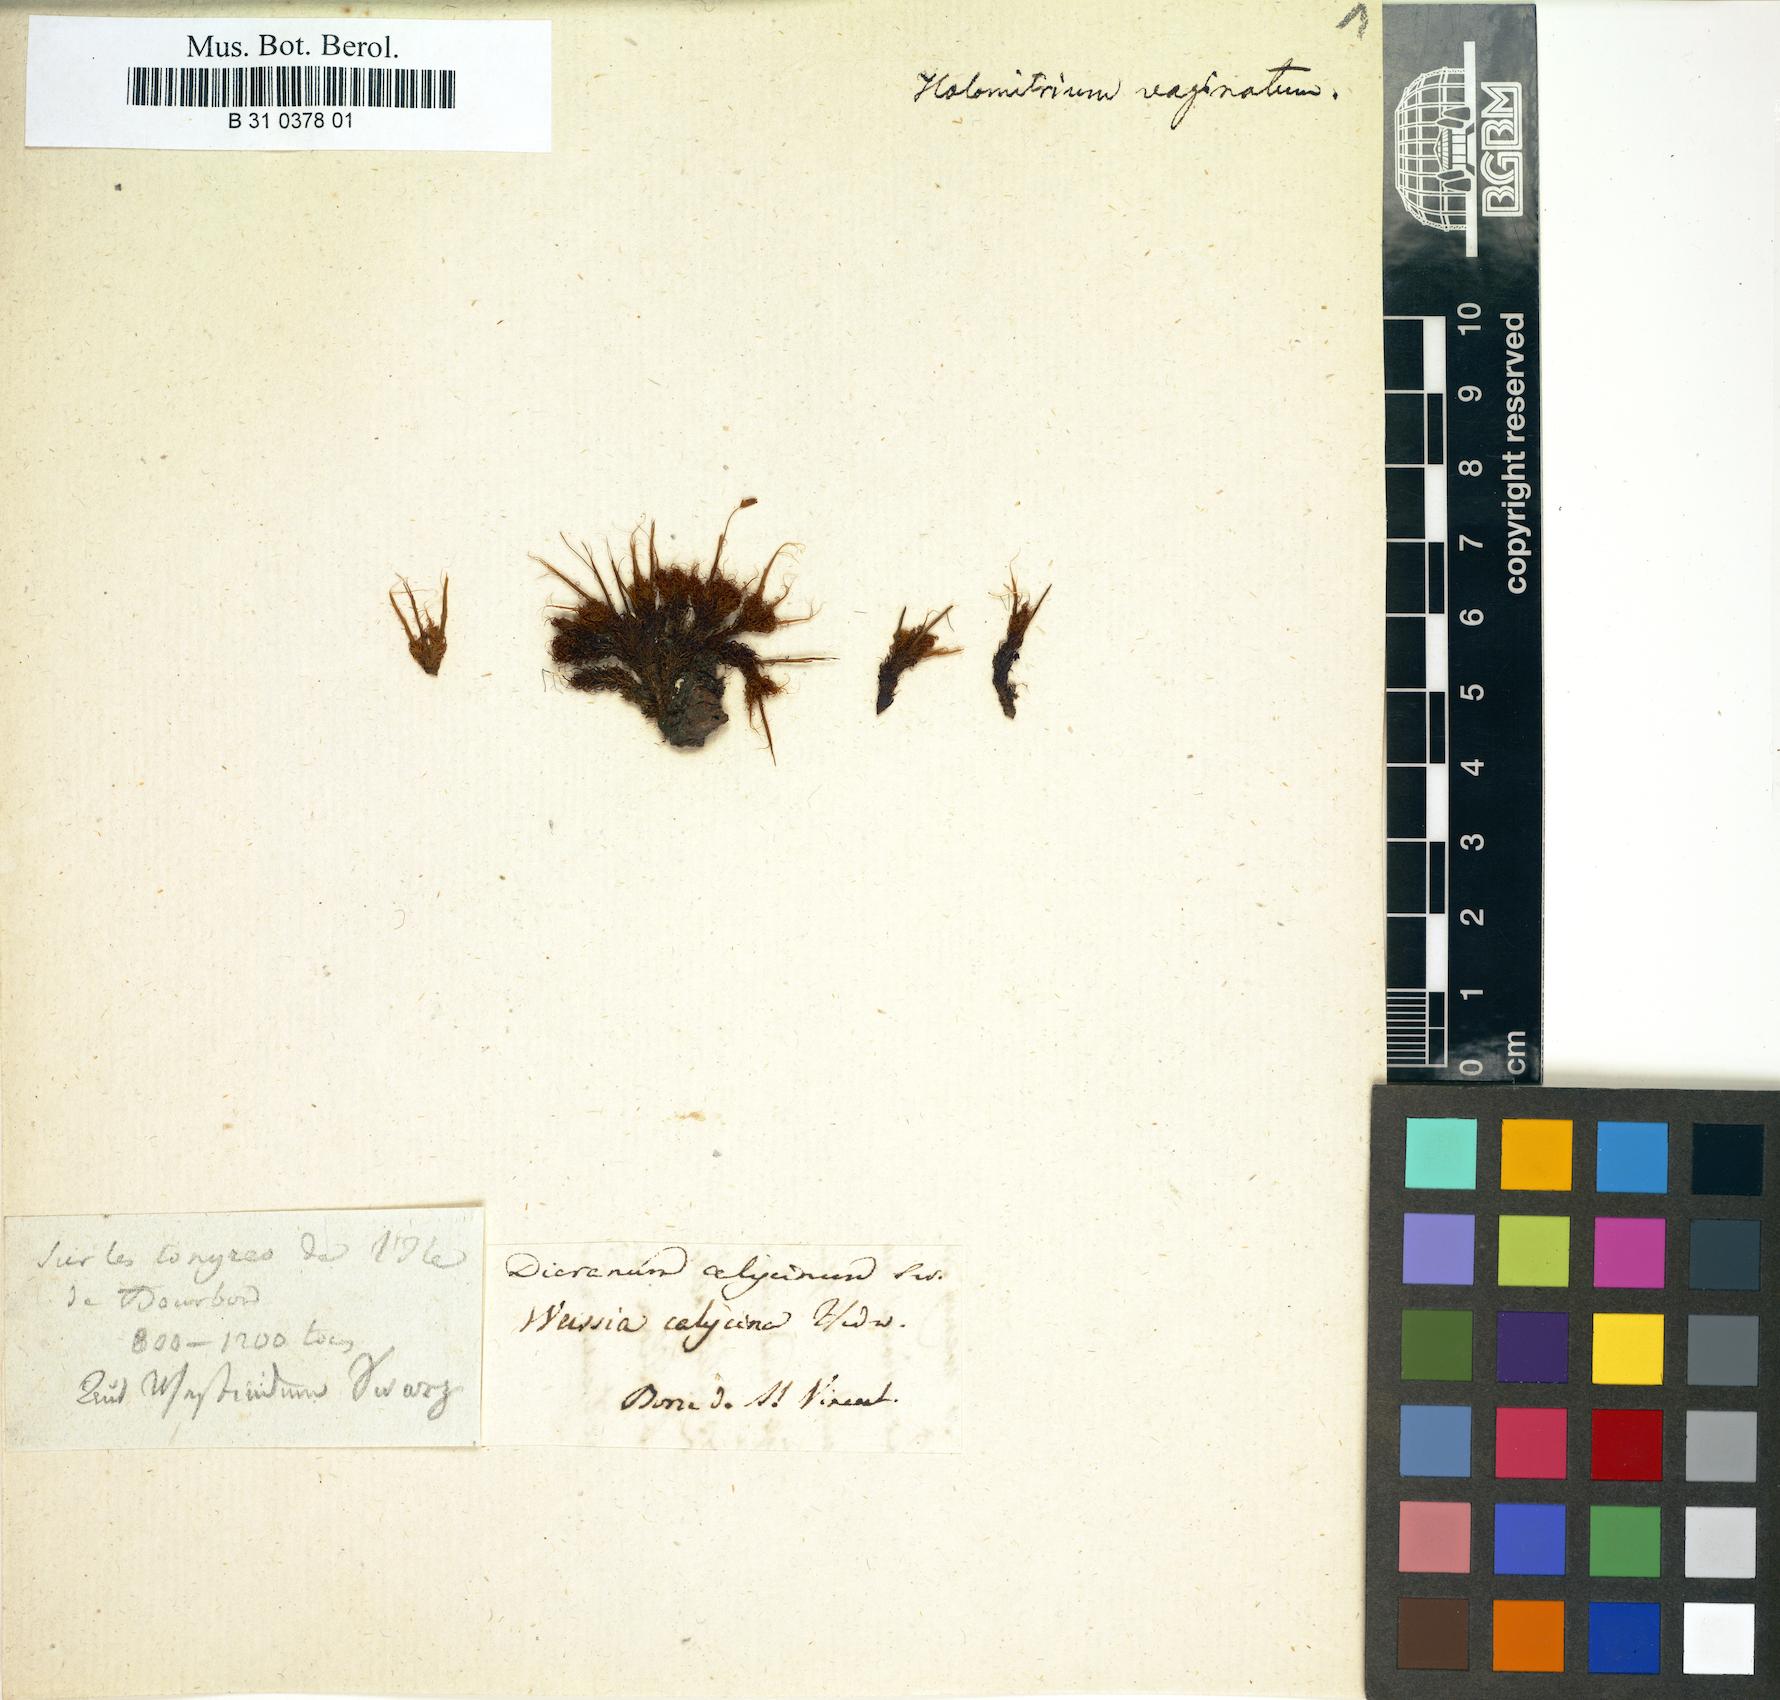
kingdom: Plantae
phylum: Bryophyta
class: Bryopsida
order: Dicranales
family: Dicranaceae
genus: Holomitrium
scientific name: Holomitrium calycinum
